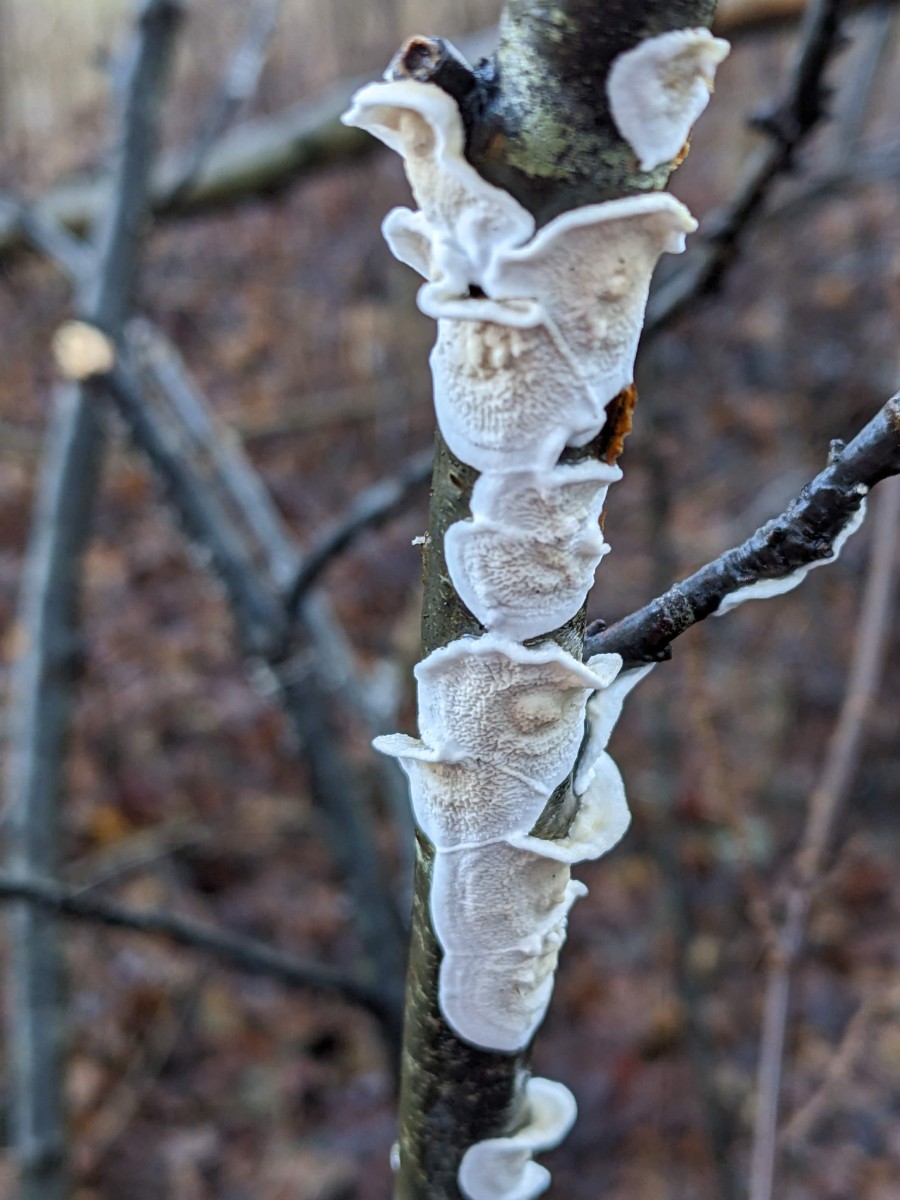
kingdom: Fungi
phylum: Basidiomycota
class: Agaricomycetes
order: Polyporales
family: Irpicaceae
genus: Byssomerulius
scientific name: Byssomerulius corium
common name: læder-åresvamp
